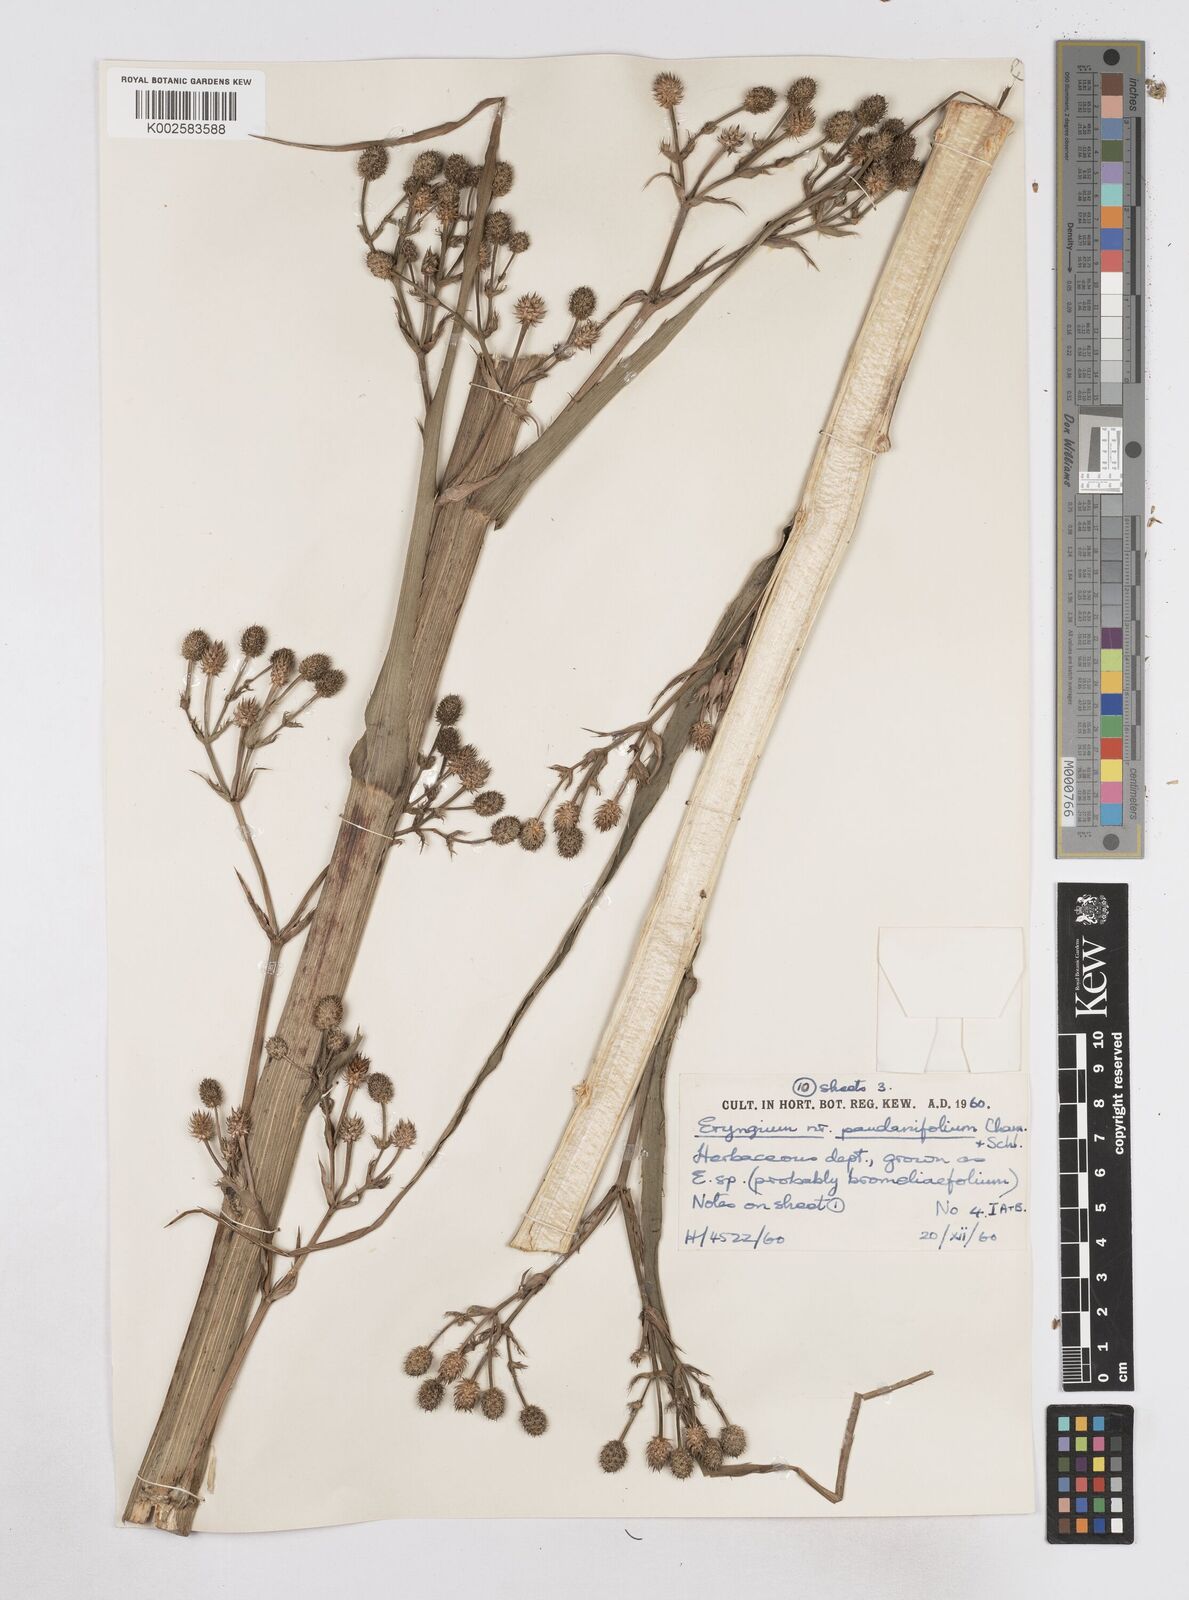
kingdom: Plantae
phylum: Tracheophyta
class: Magnoliopsida
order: Apiales
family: Apiaceae
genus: Eryngium
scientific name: Eryngium pandanifolium
